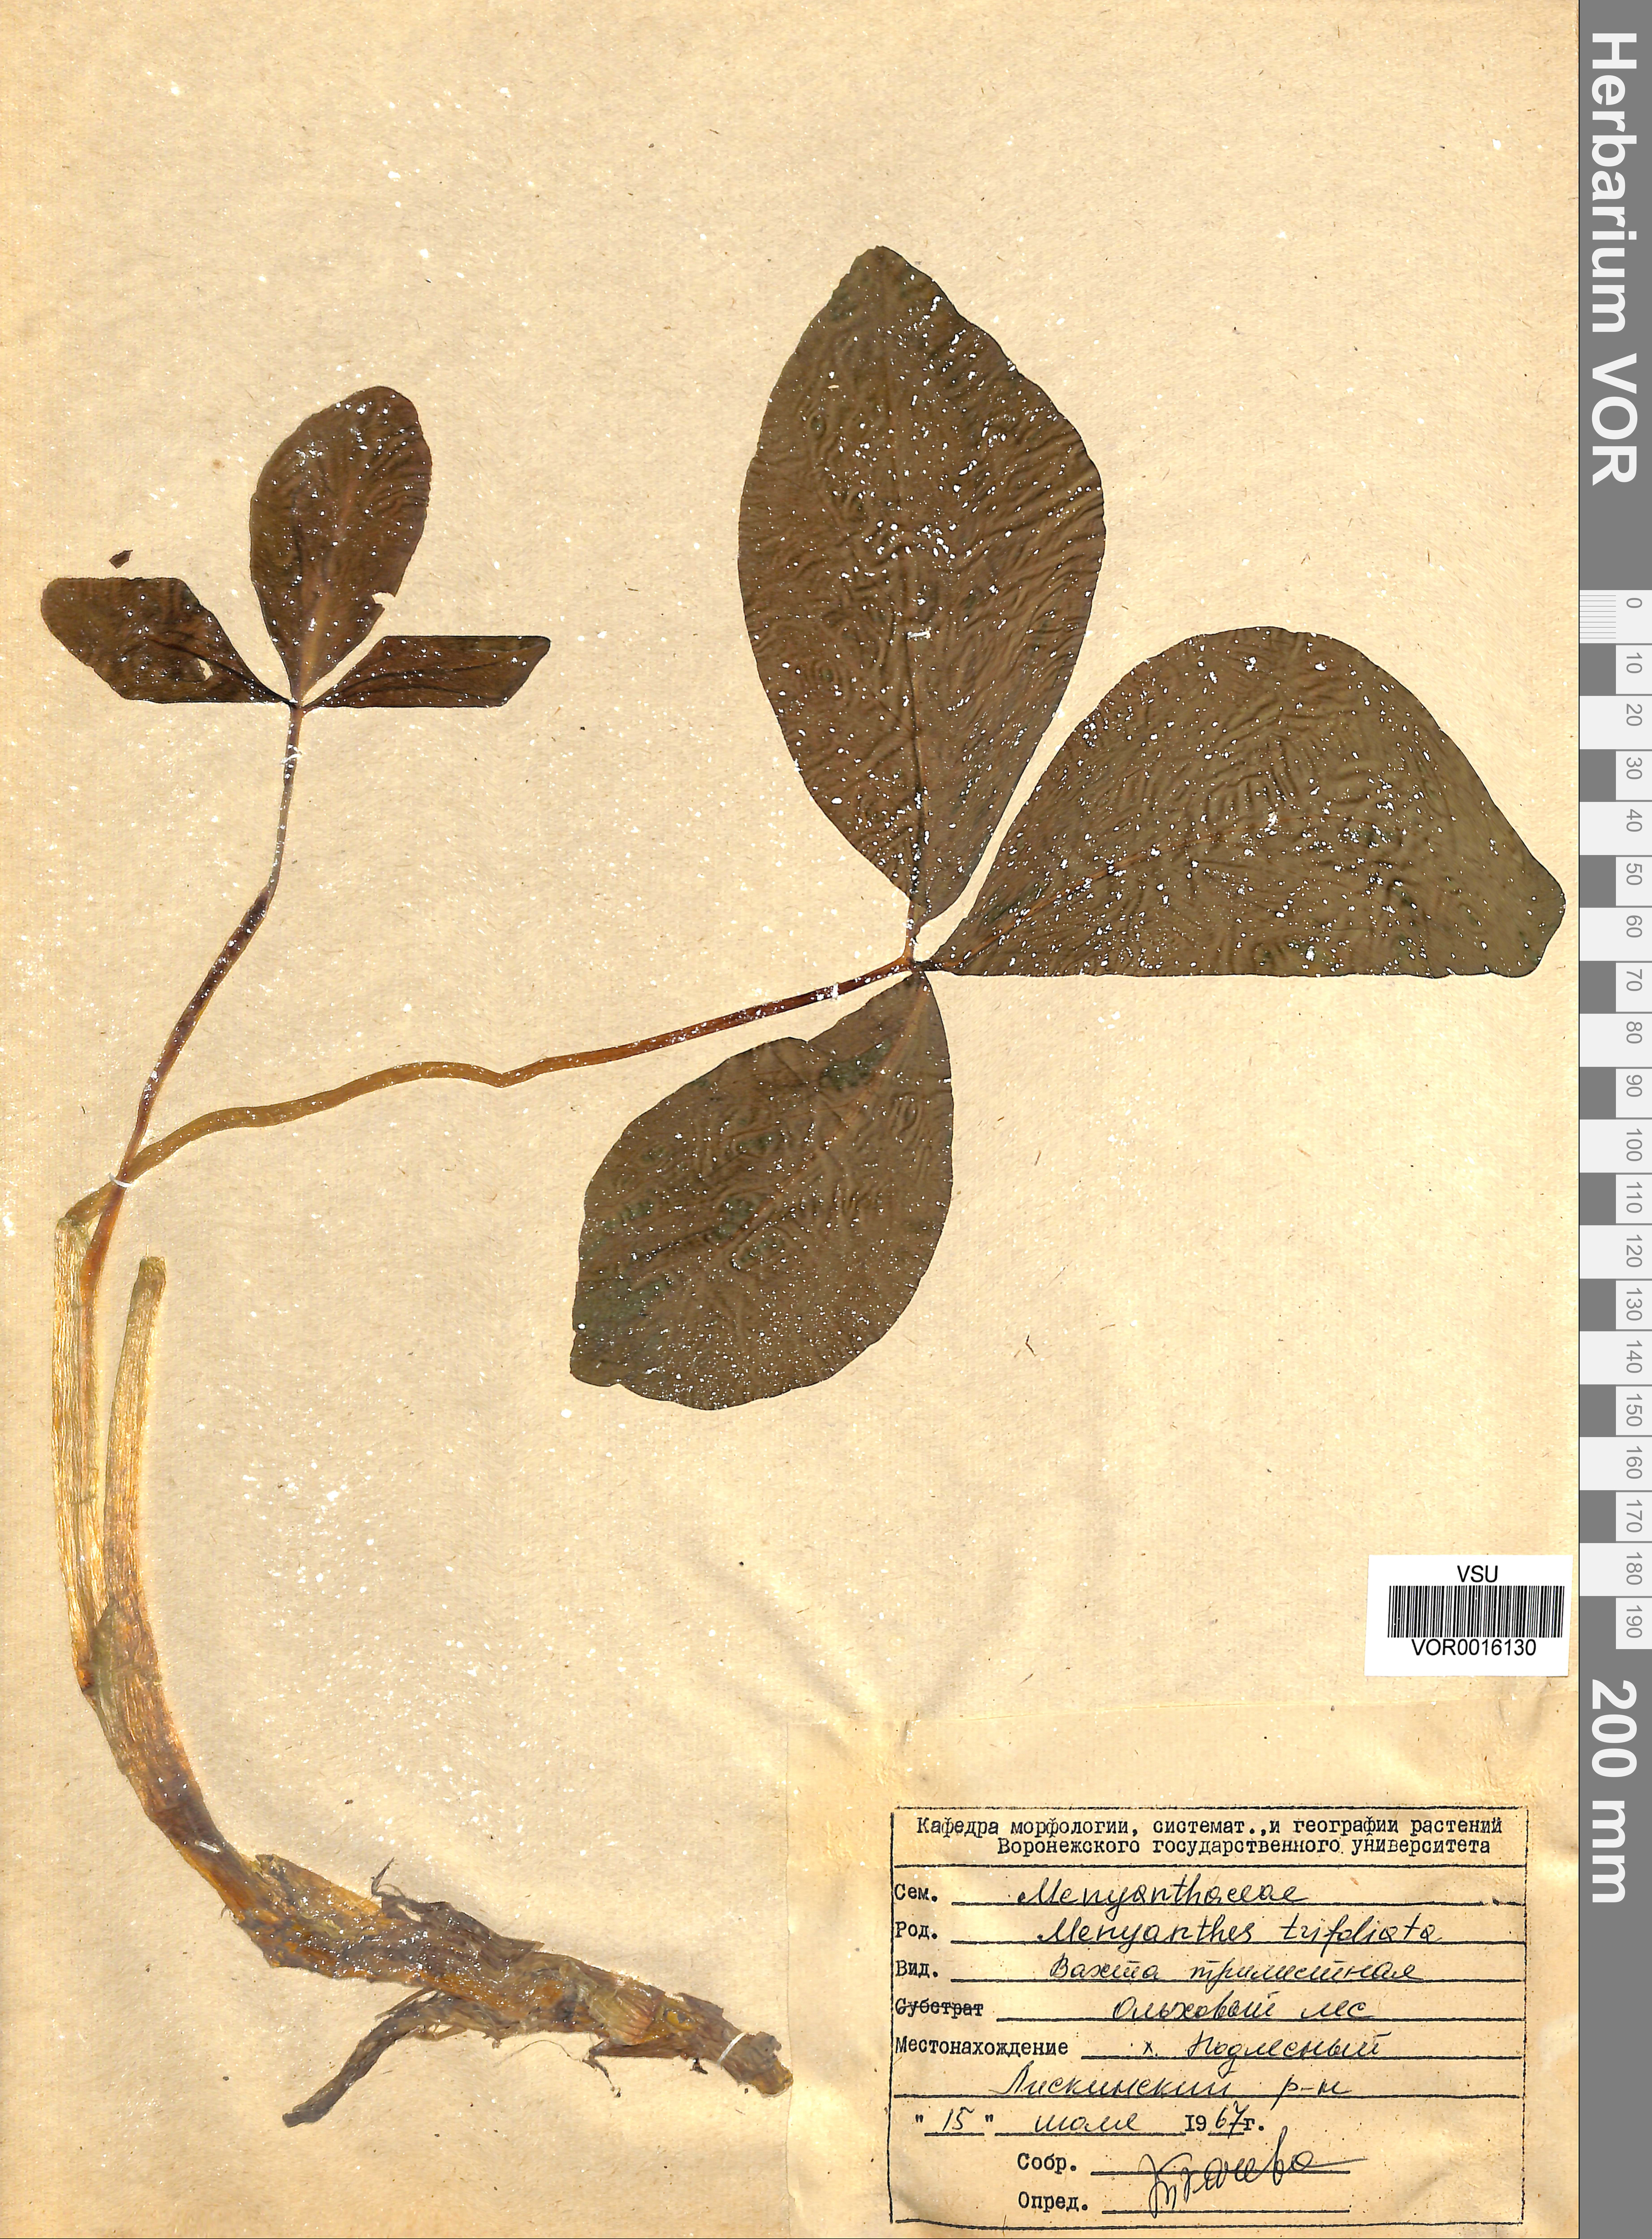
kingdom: Plantae
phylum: Tracheophyta
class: Magnoliopsida
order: Asterales
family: Menyanthaceae
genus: Menyanthes
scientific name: Menyanthes trifoliata
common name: Bogbean
